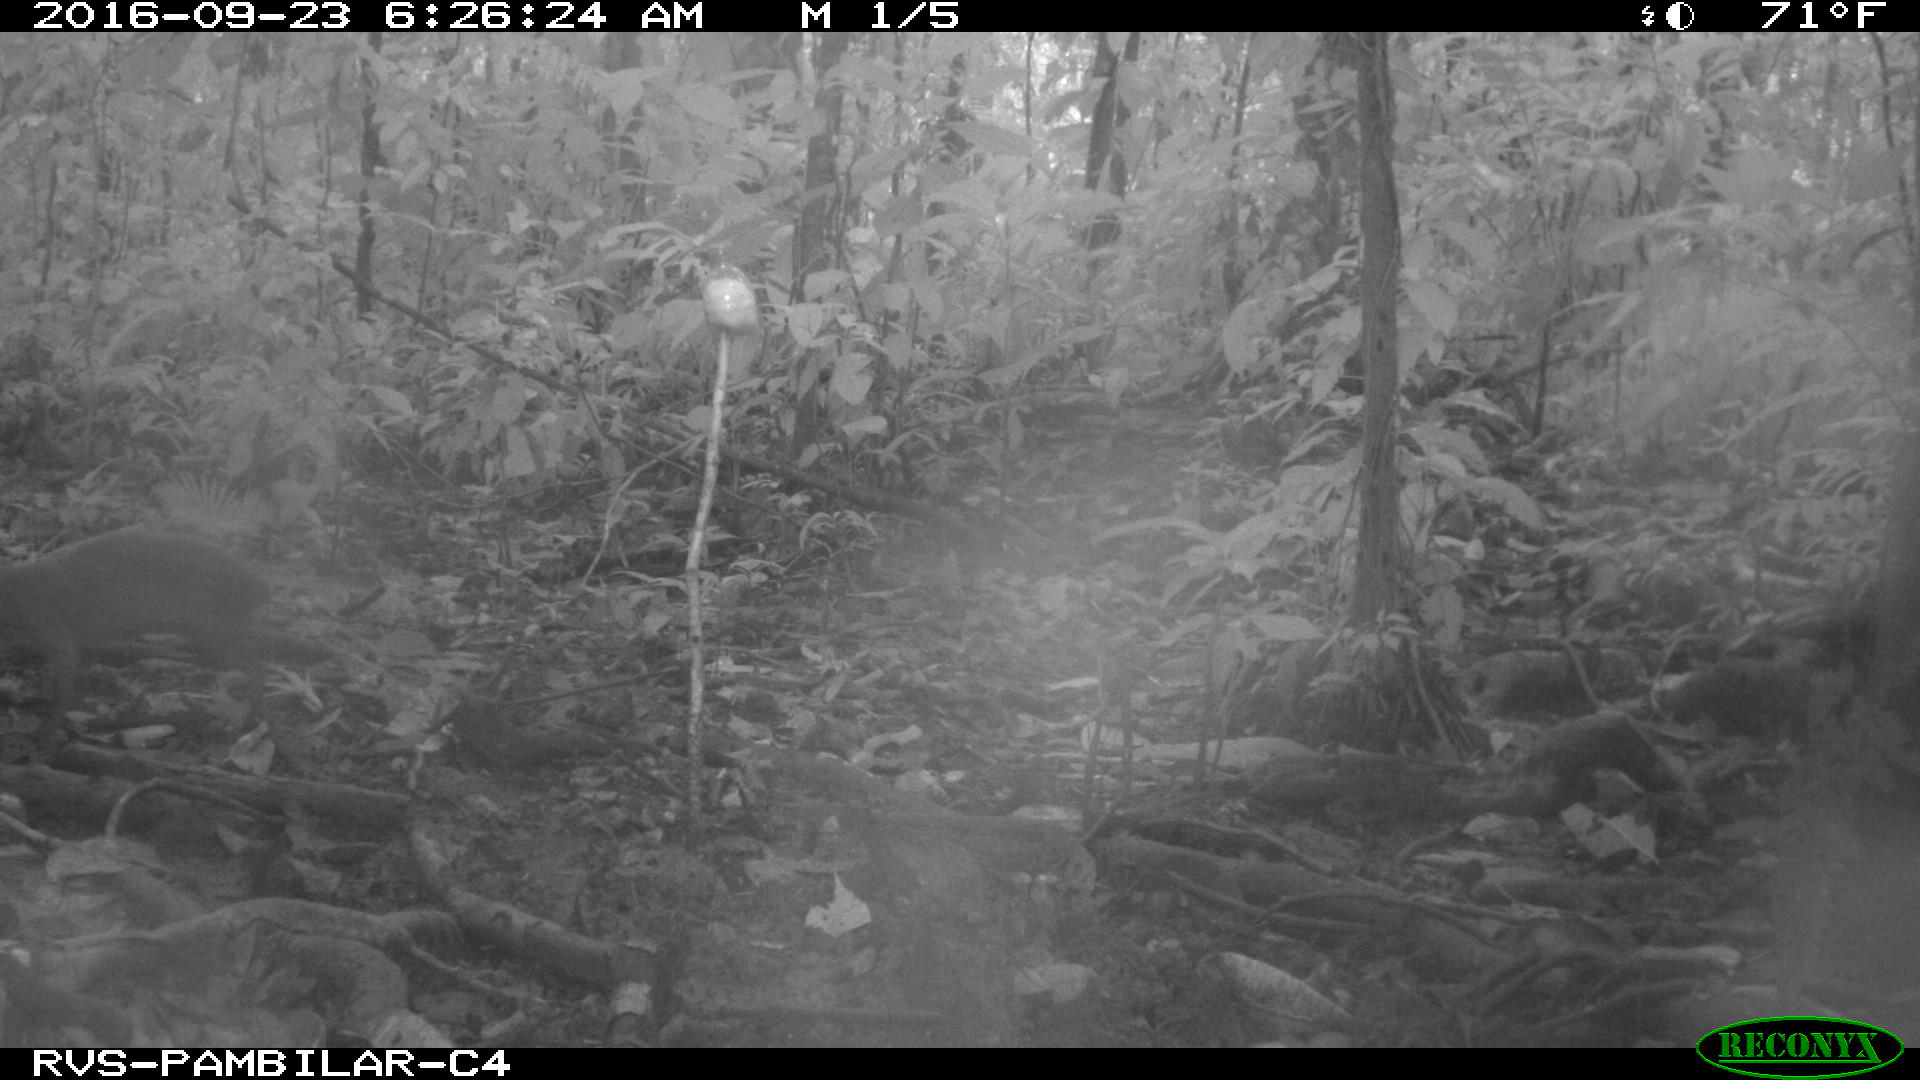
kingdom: Animalia
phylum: Chordata
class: Mammalia
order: Rodentia
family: Dasyproctidae
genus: Dasyprocta
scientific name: Dasyprocta punctata
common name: Central american agouti
